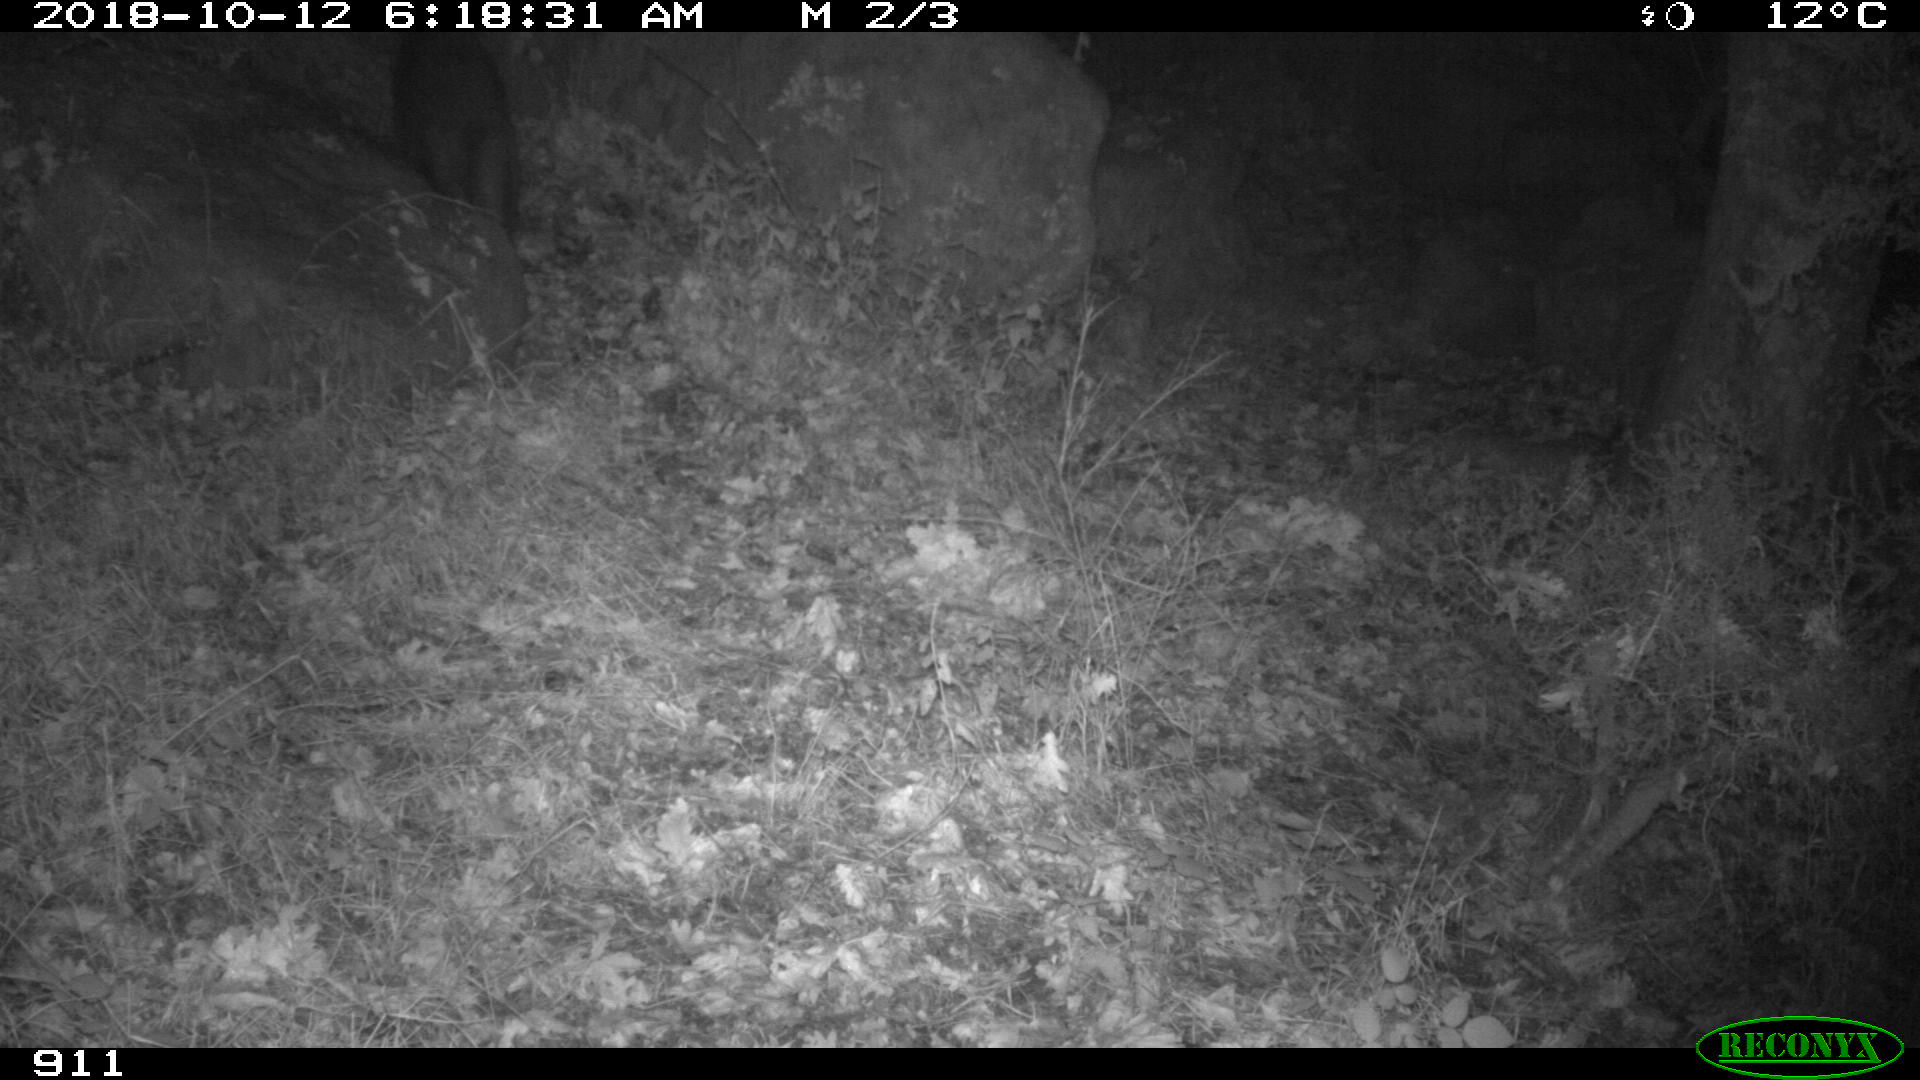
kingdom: Animalia
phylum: Chordata
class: Mammalia
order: Artiodactyla
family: Suidae
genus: Sus
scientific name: Sus scrofa
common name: Wild boar
